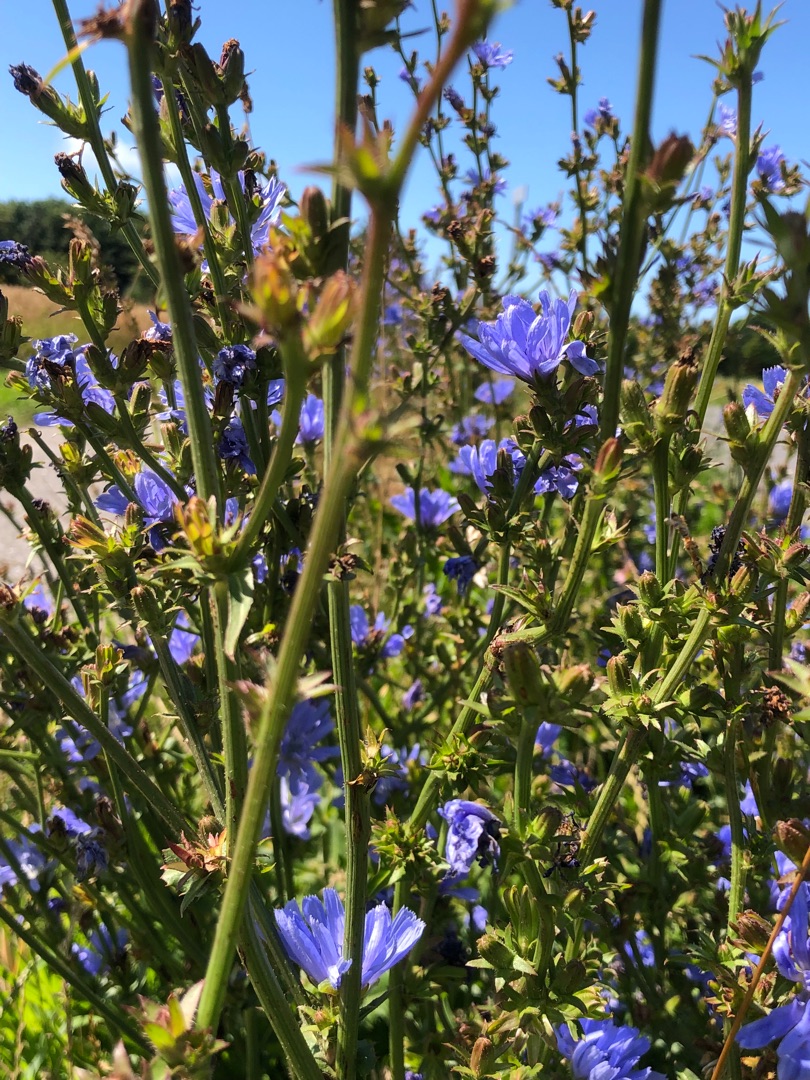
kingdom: Plantae
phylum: Tracheophyta
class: Magnoliopsida
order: Asterales
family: Asteraceae
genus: Cichorium
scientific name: Cichorium intybus
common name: Cikorie
